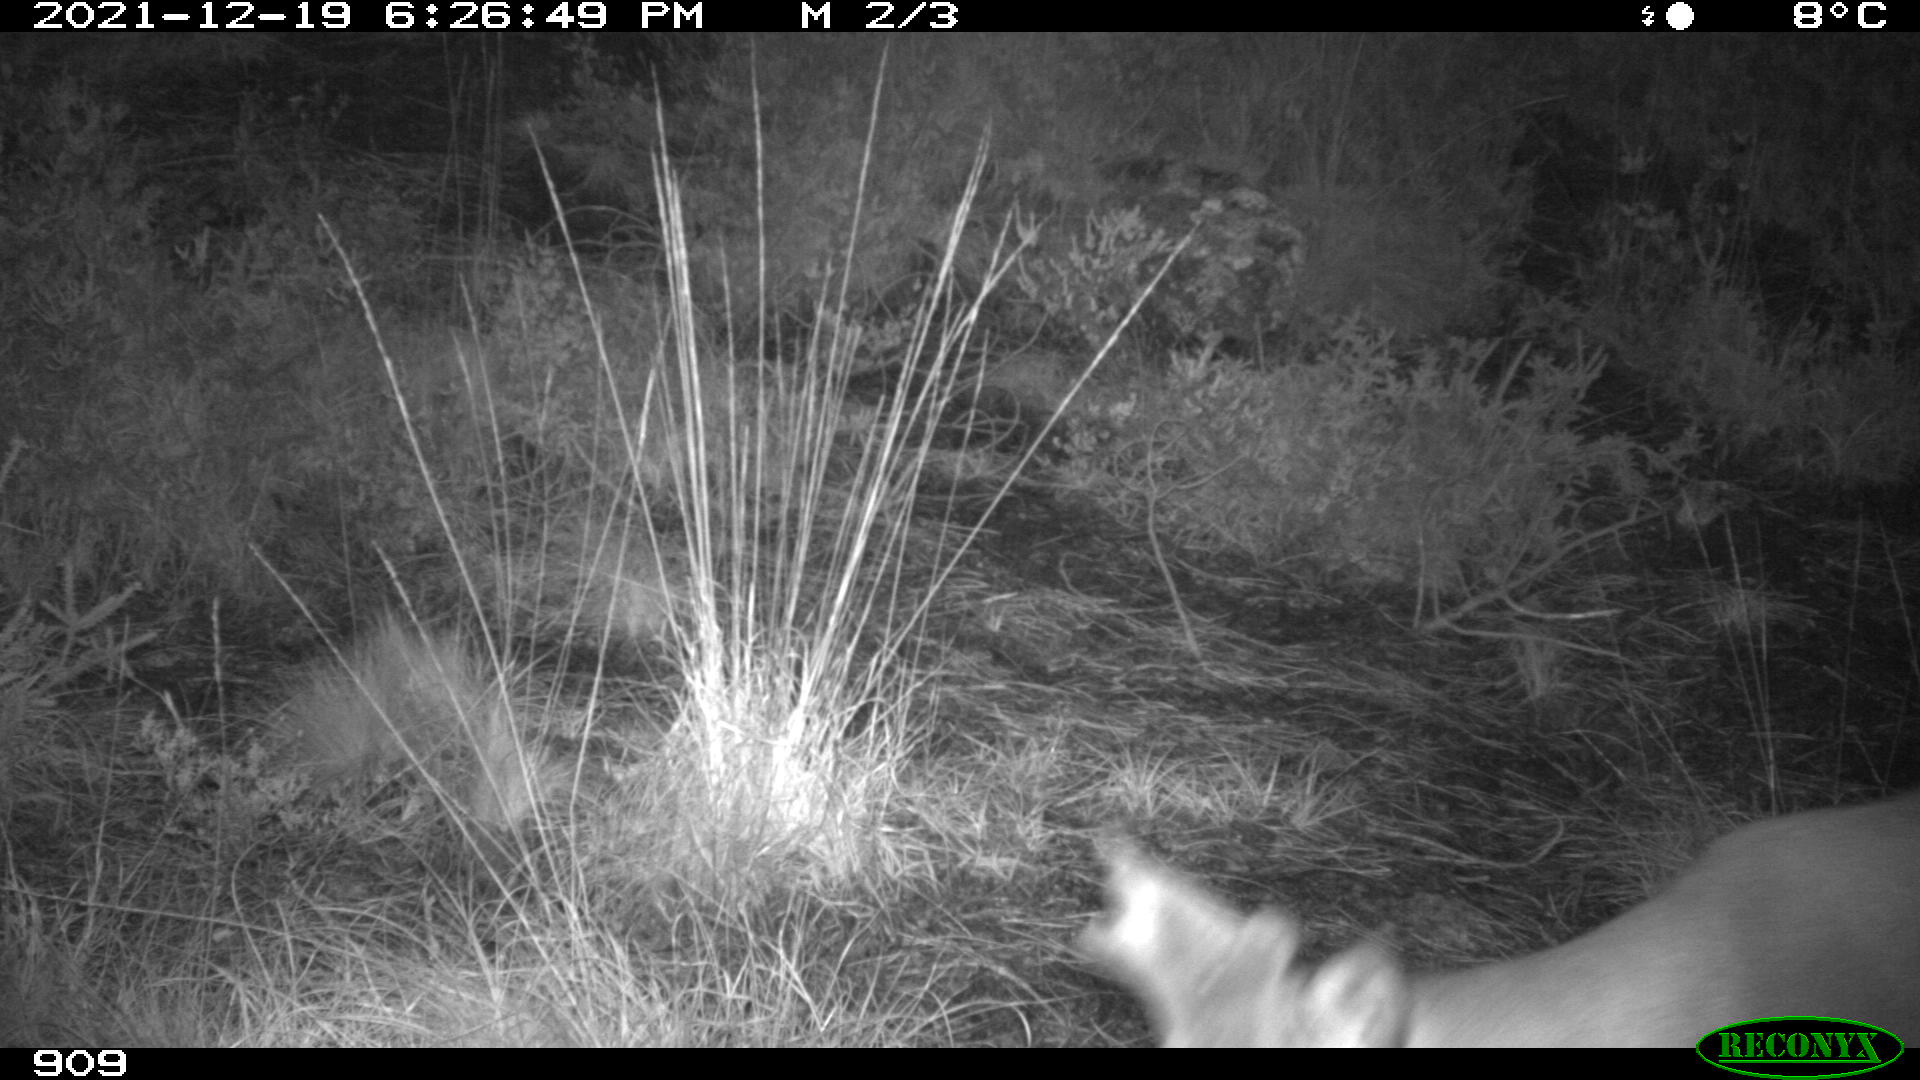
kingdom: Animalia
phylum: Chordata
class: Mammalia
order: Artiodactyla
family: Cervidae
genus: Capreolus
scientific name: Capreolus capreolus
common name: Western roe deer
